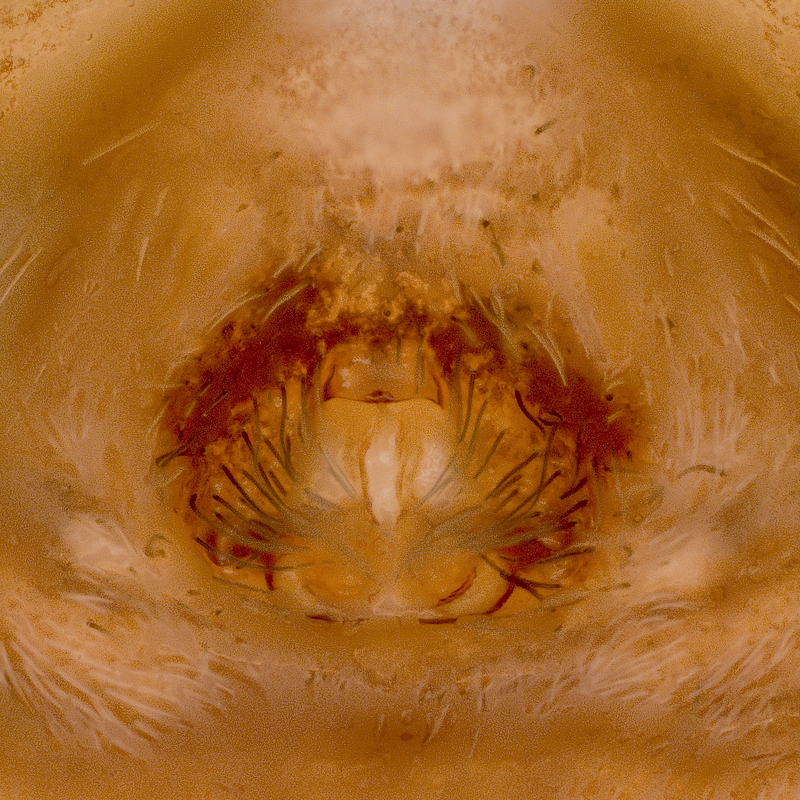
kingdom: Animalia
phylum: Arthropoda
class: Arachnida
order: Araneae
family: Lycosidae
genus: Pardosa
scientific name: Pardosa lugubris
